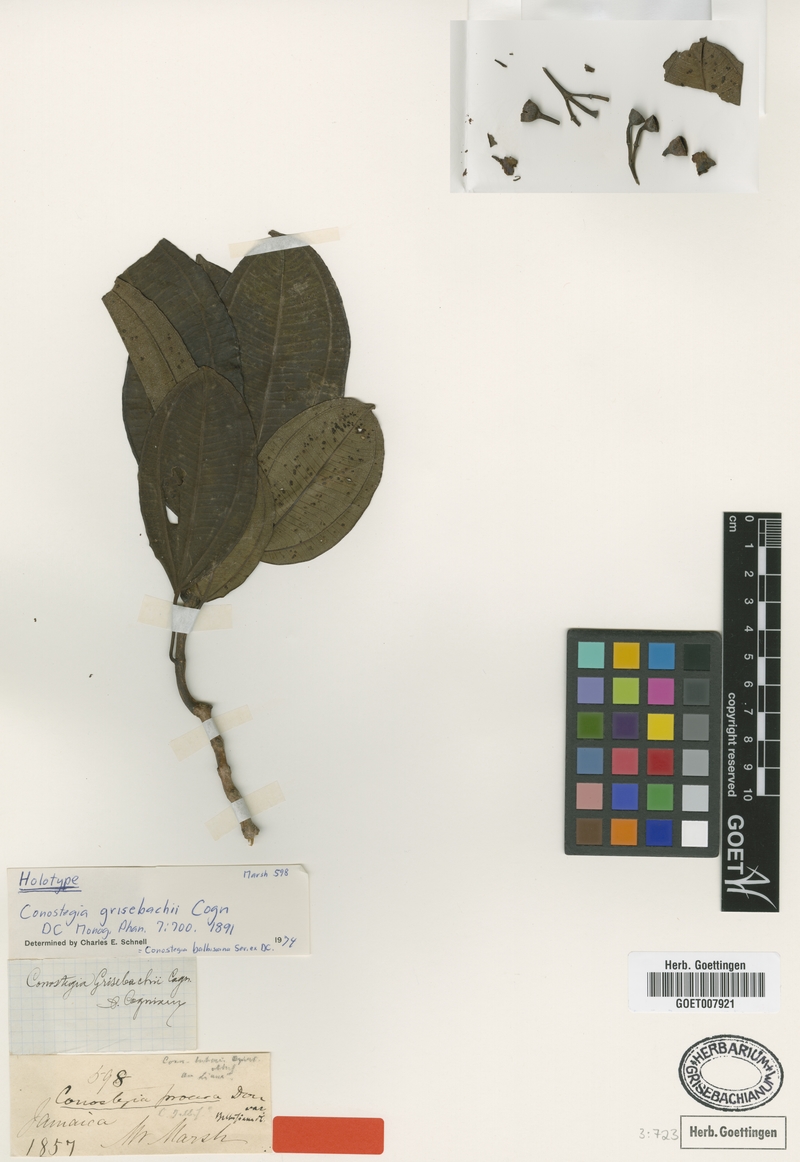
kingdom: Plantae
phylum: Tracheophyta
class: Magnoliopsida
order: Myrtales
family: Melastomataceae
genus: Miconia
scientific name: Miconia balbisiana
